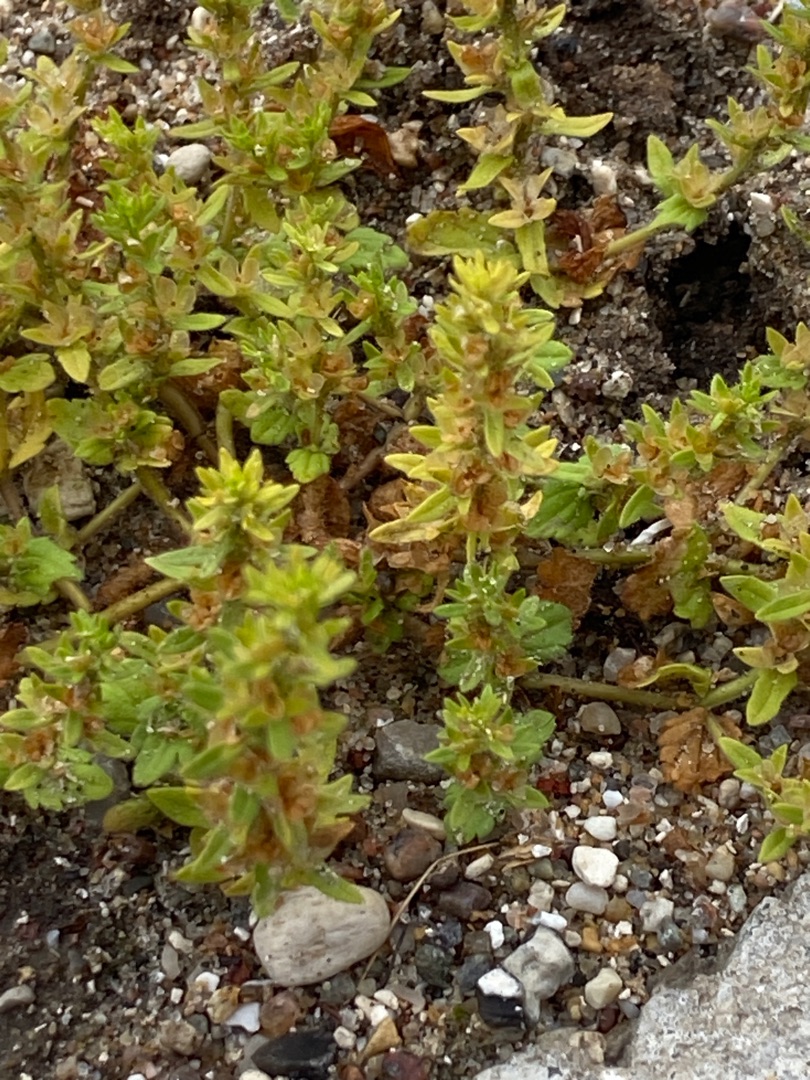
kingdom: Plantae
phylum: Tracheophyta
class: Magnoliopsida
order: Lamiales
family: Plantaginaceae
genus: Veronica
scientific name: Veronica arvensis
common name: Mark-ærenpris
